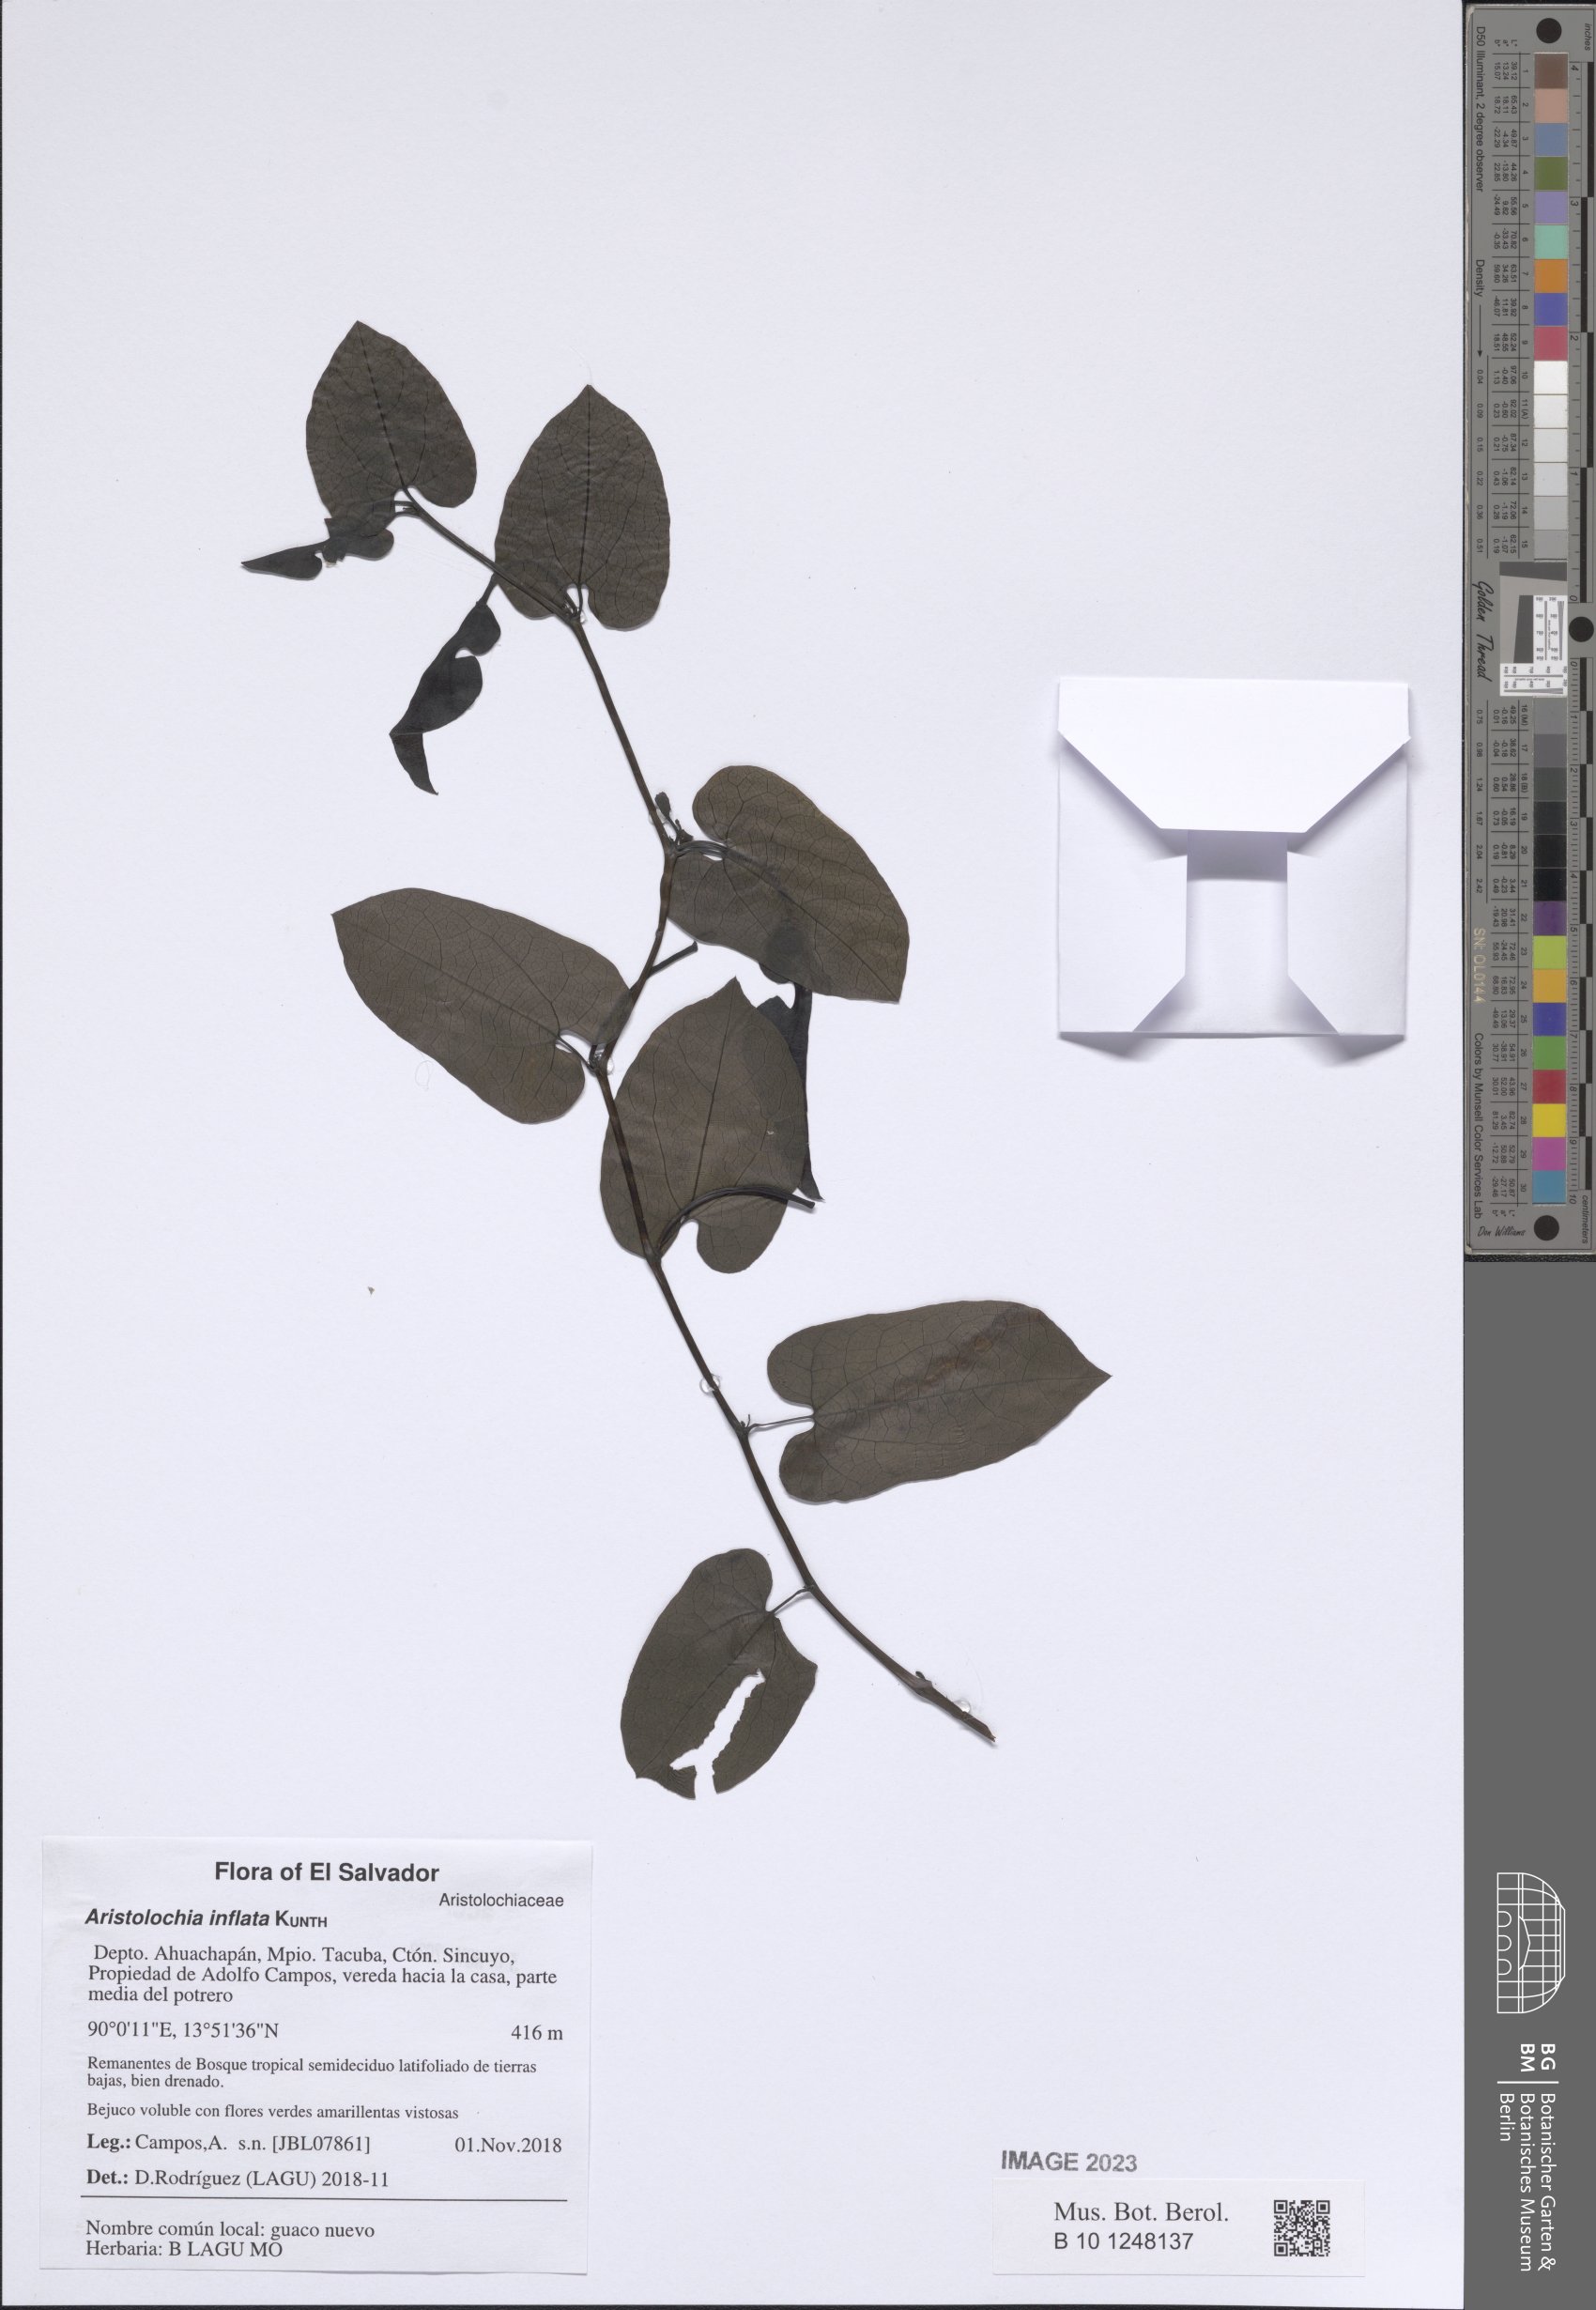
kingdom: Plantae
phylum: Tracheophyta
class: Magnoliopsida
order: Piperales
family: Aristolochiaceae
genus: Aristolochia
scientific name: Aristolochia inflata
